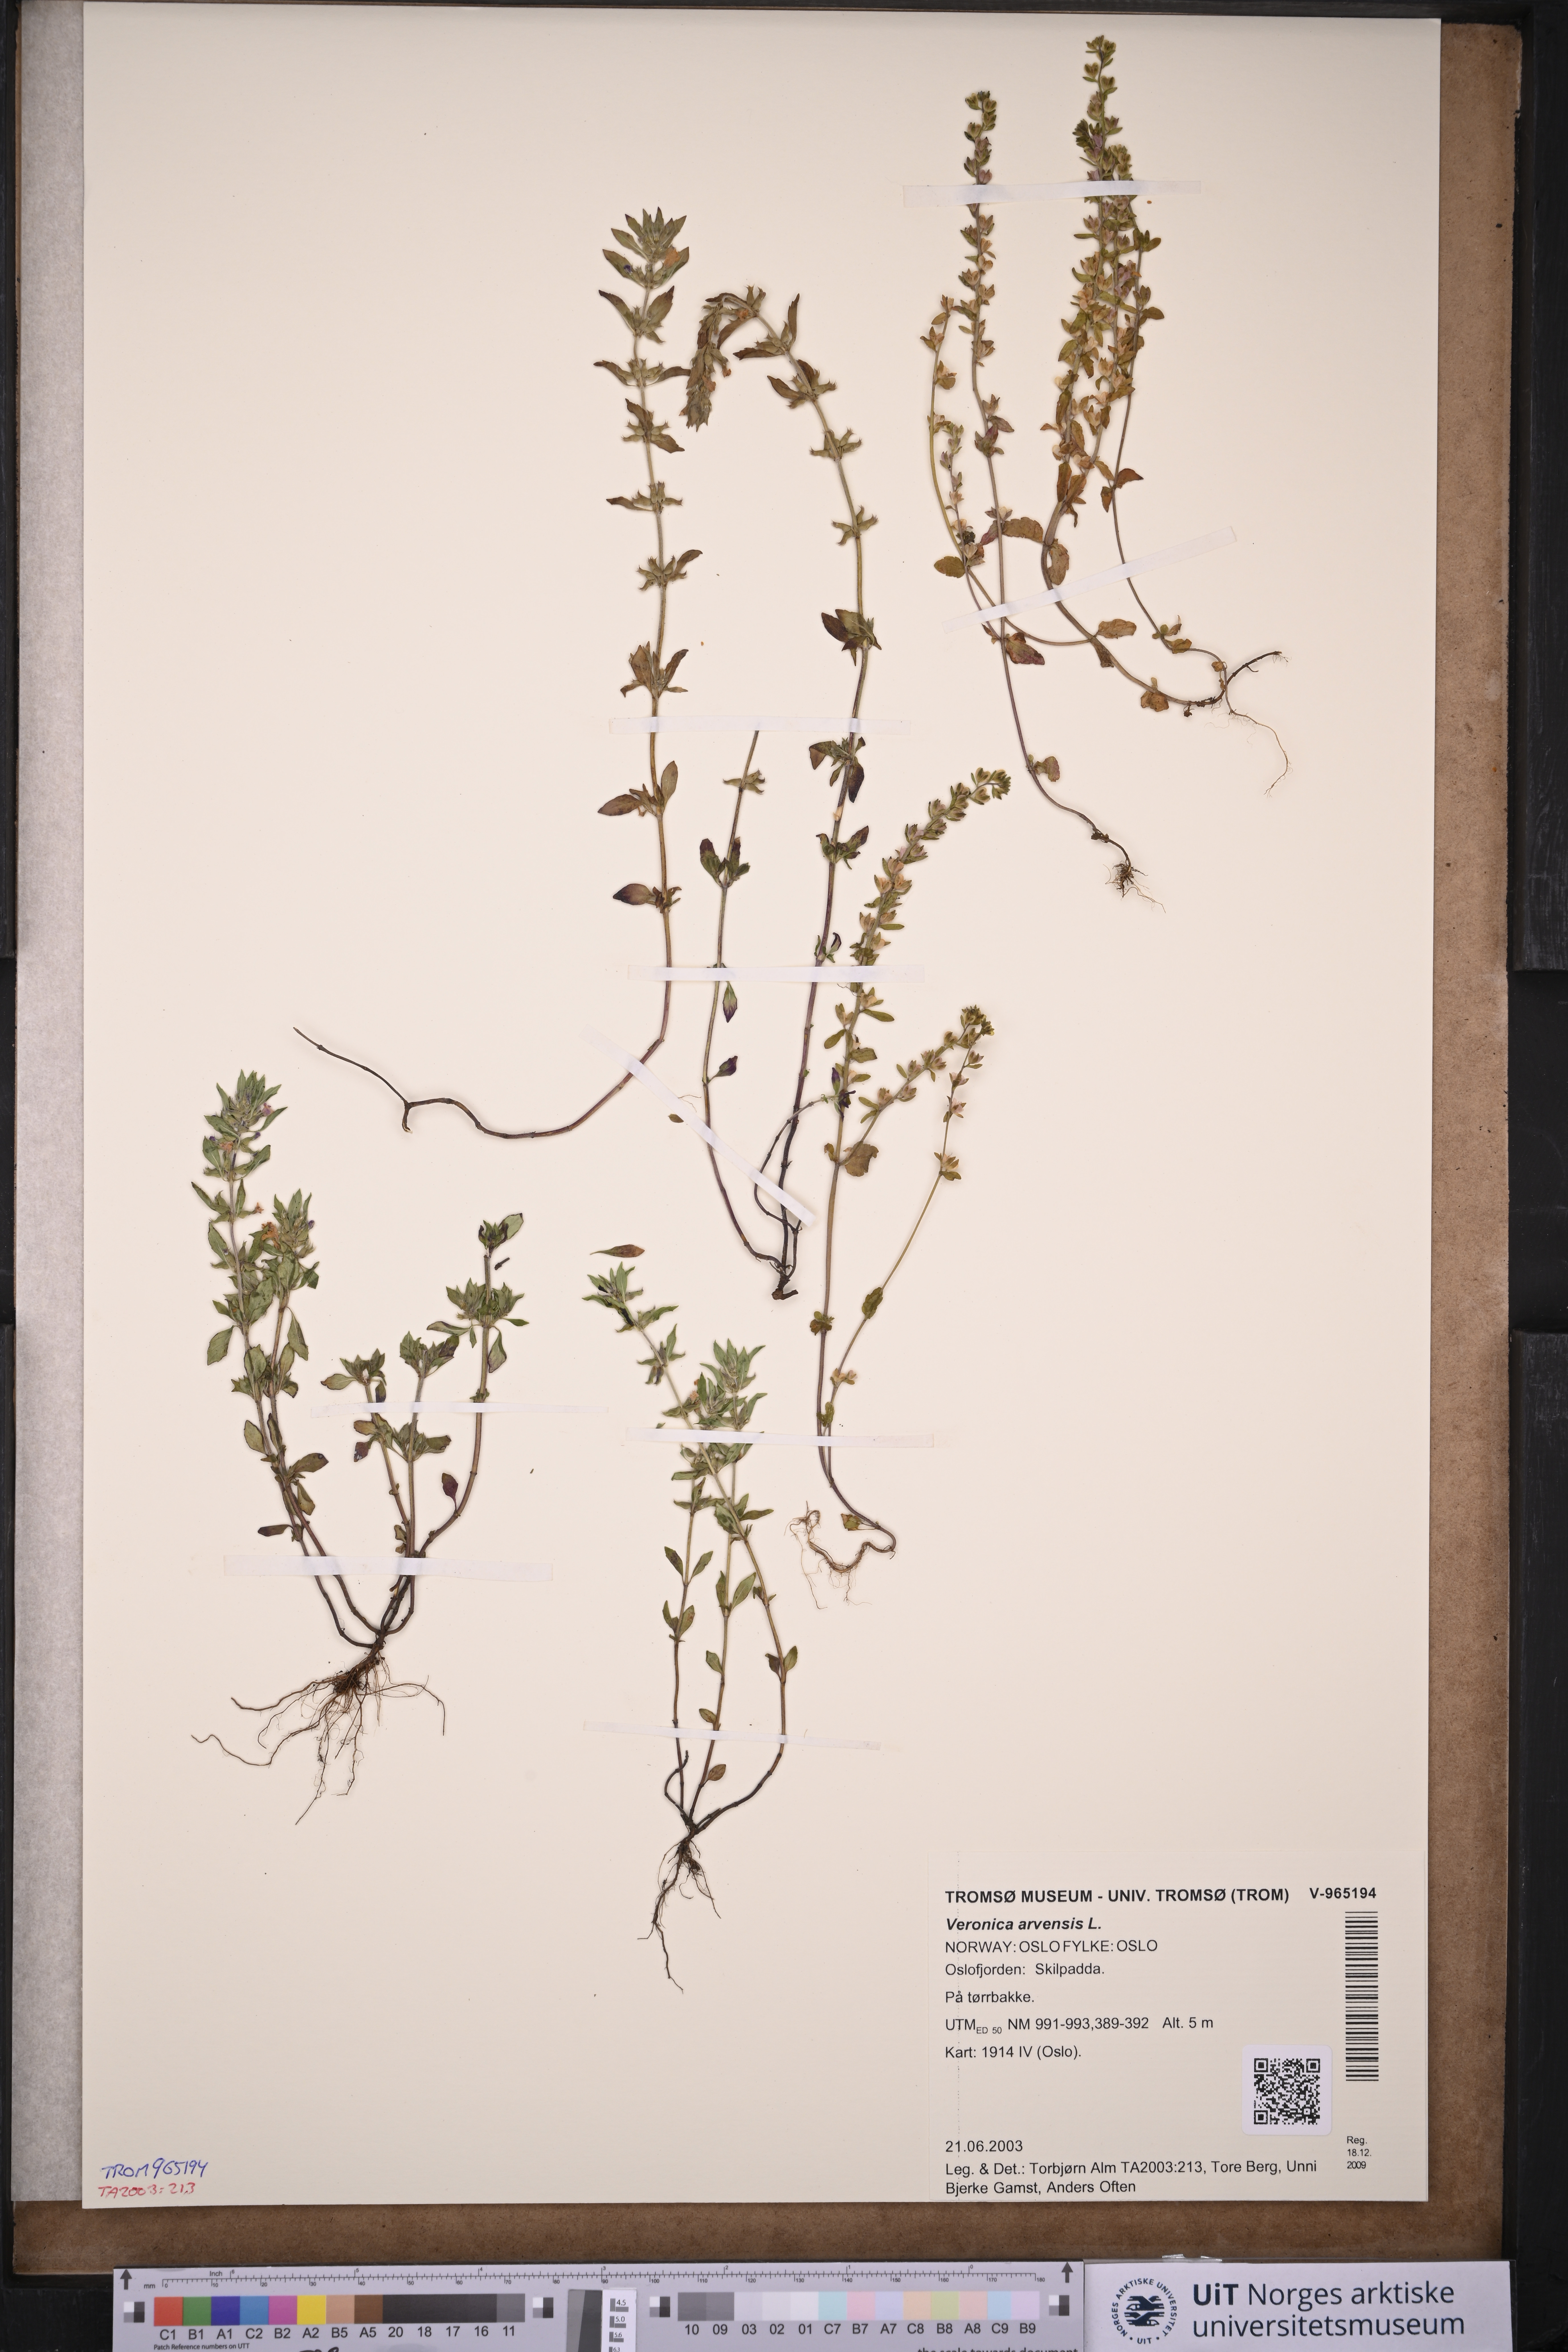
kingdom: Plantae
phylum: Tracheophyta
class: Magnoliopsida
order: Lamiales
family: Plantaginaceae
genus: Veronica
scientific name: Veronica arvensis
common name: Corn speedwell
